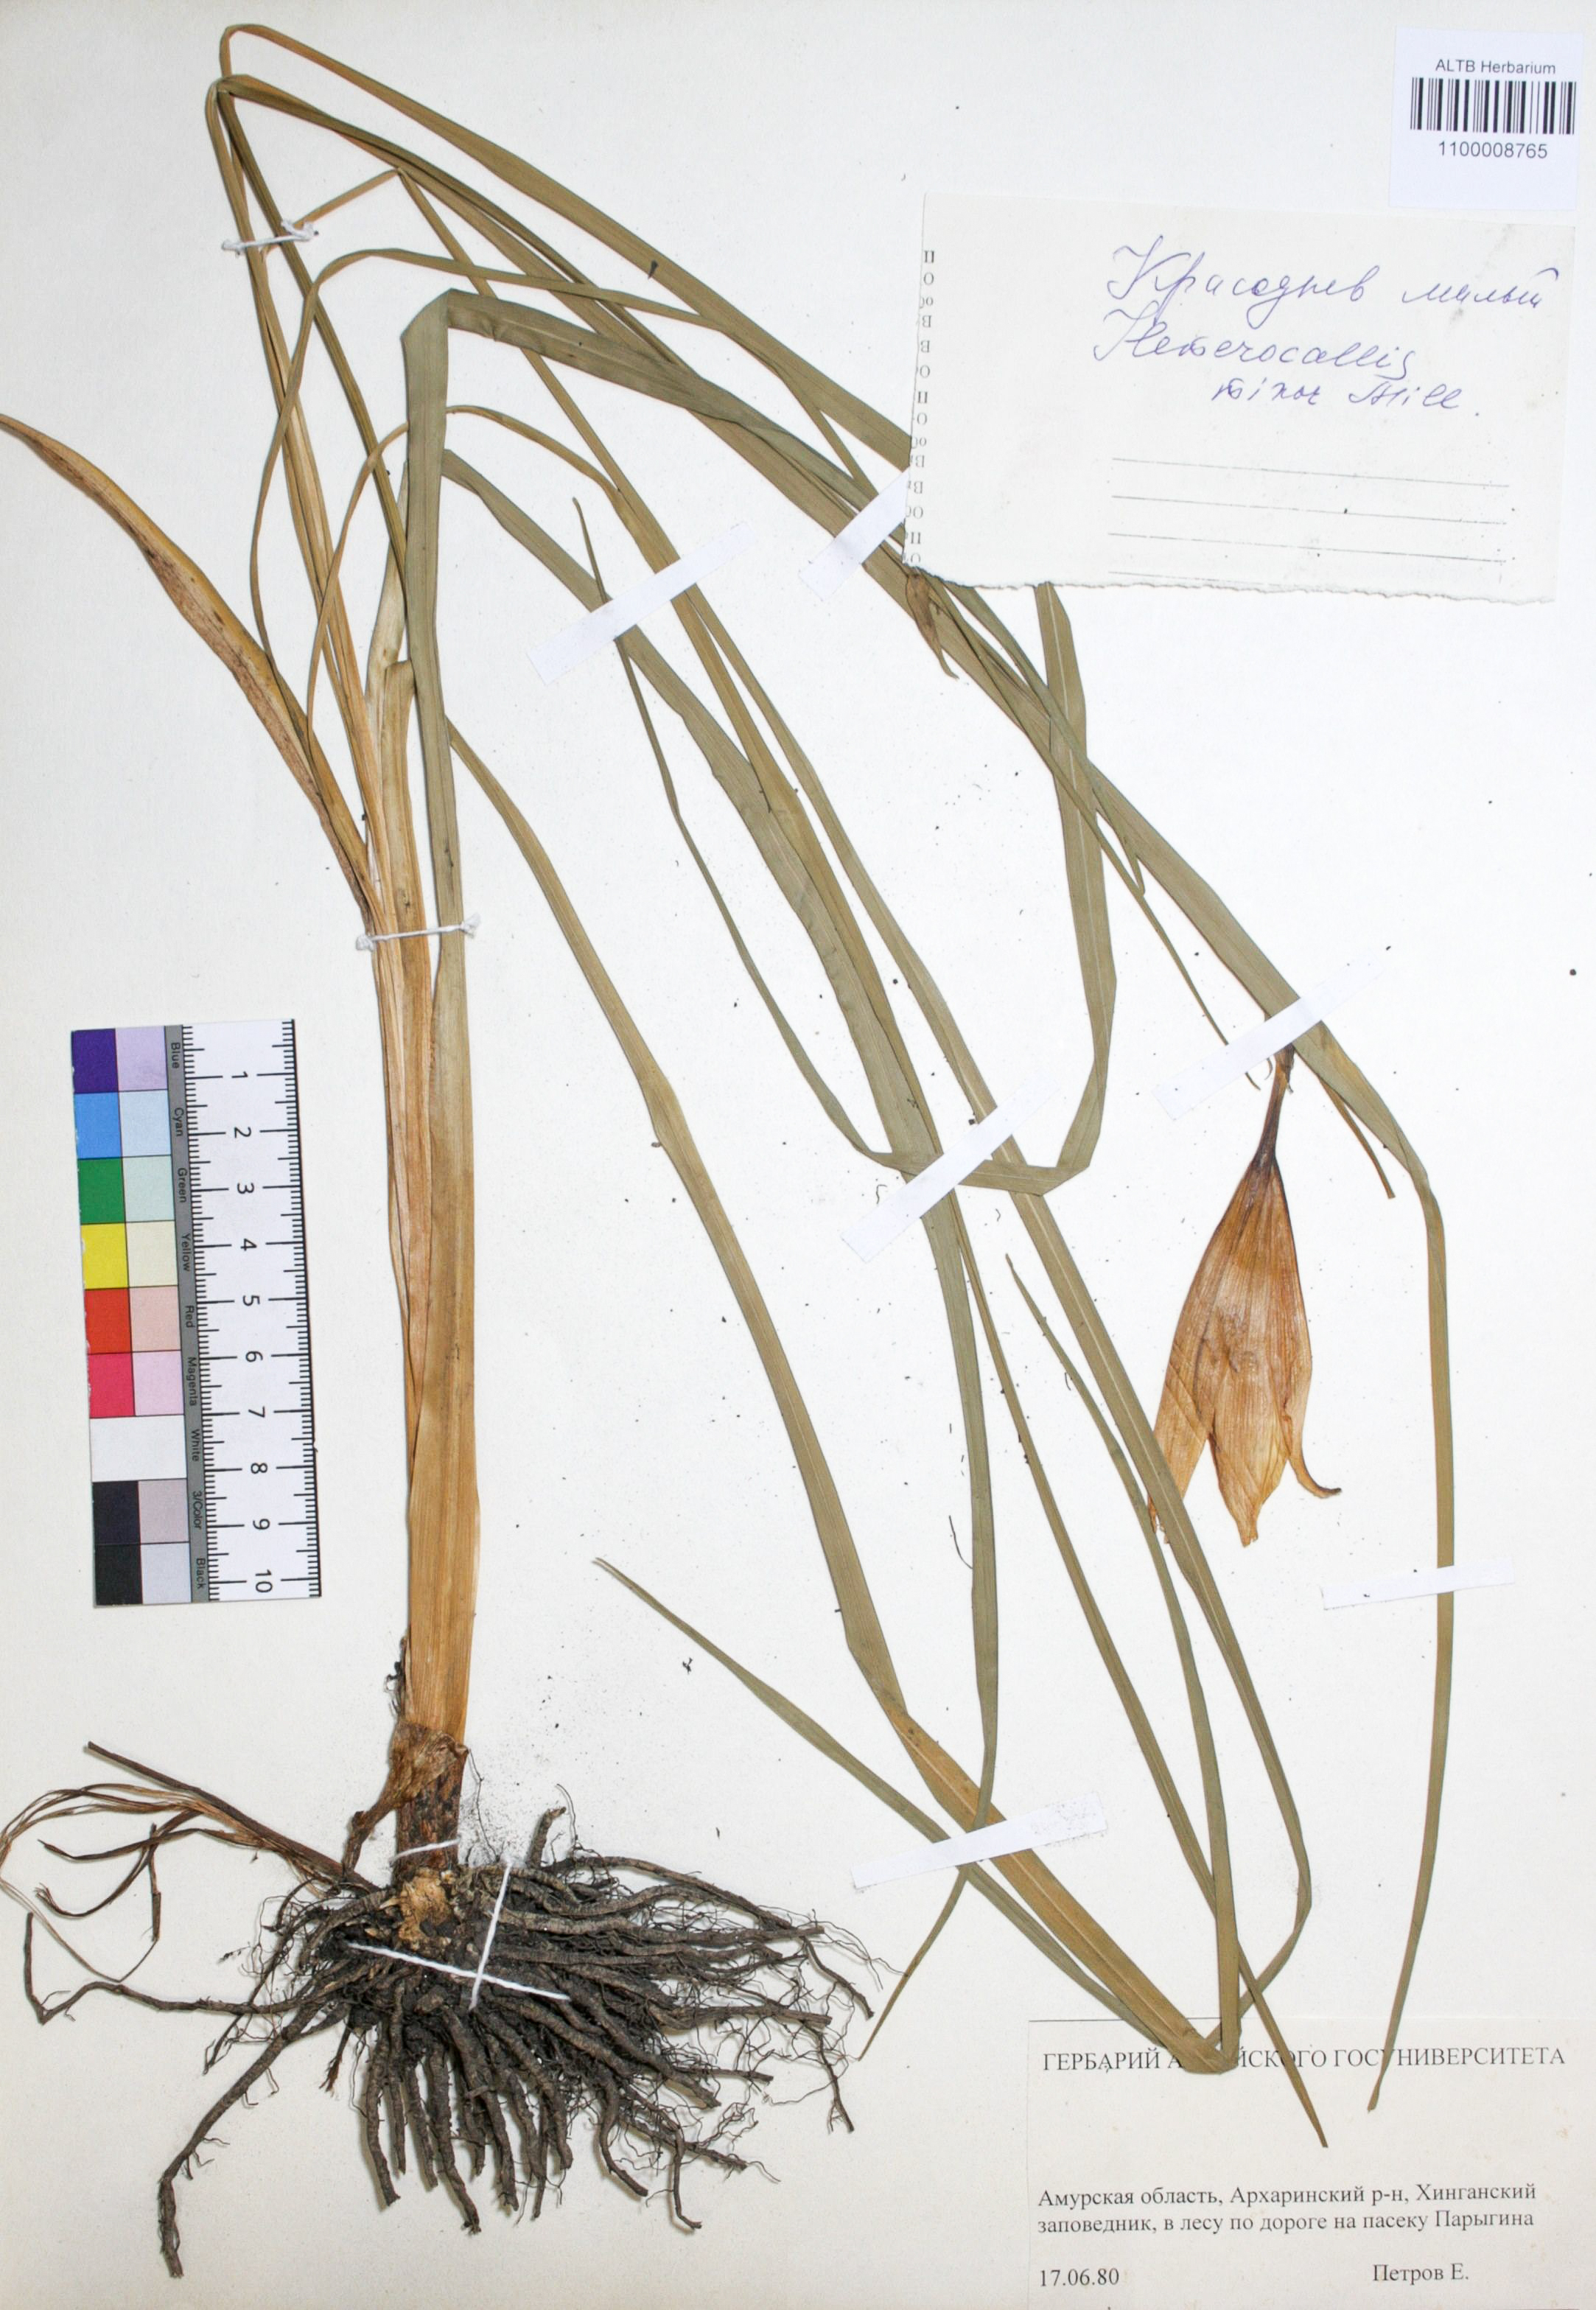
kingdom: Plantae
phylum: Tracheophyta
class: Liliopsida
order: Asparagales
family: Asphodelaceae
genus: Hemerocallis
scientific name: Hemerocallis minor
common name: Small daylily
